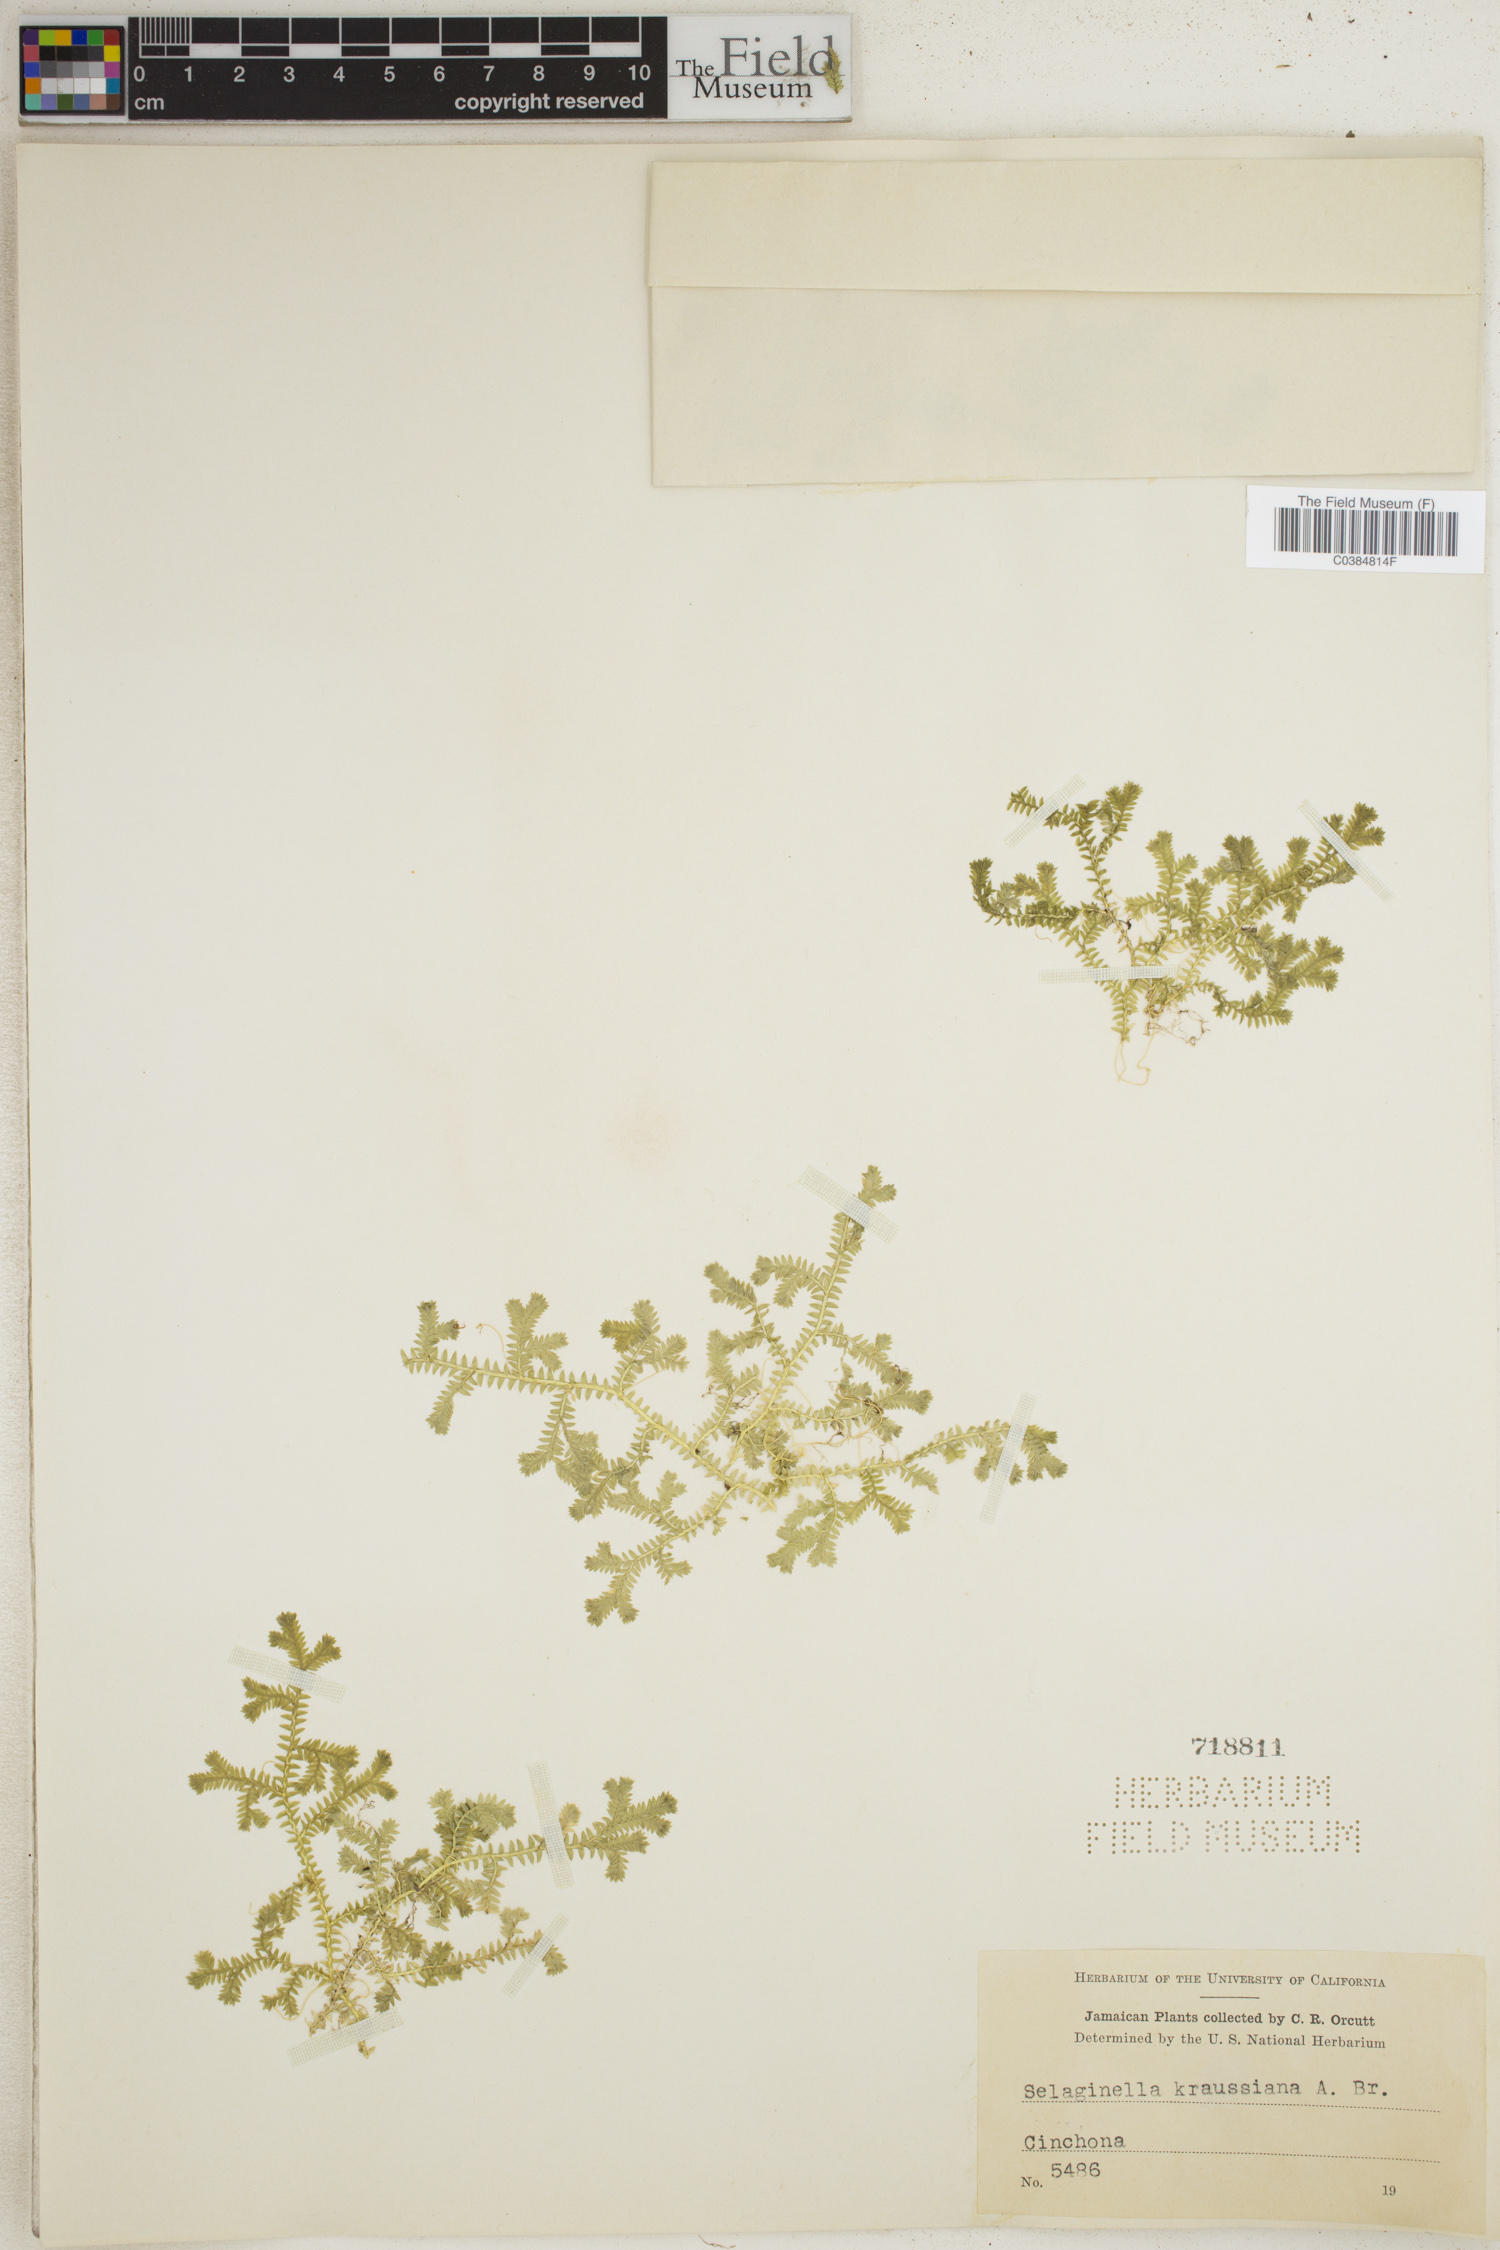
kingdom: Plantae
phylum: Tracheophyta
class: Lycopodiopsida
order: Selaginellales
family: Selaginellaceae
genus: Selaginella
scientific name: Selaginella kraussiana
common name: Krauss' spikemoss
